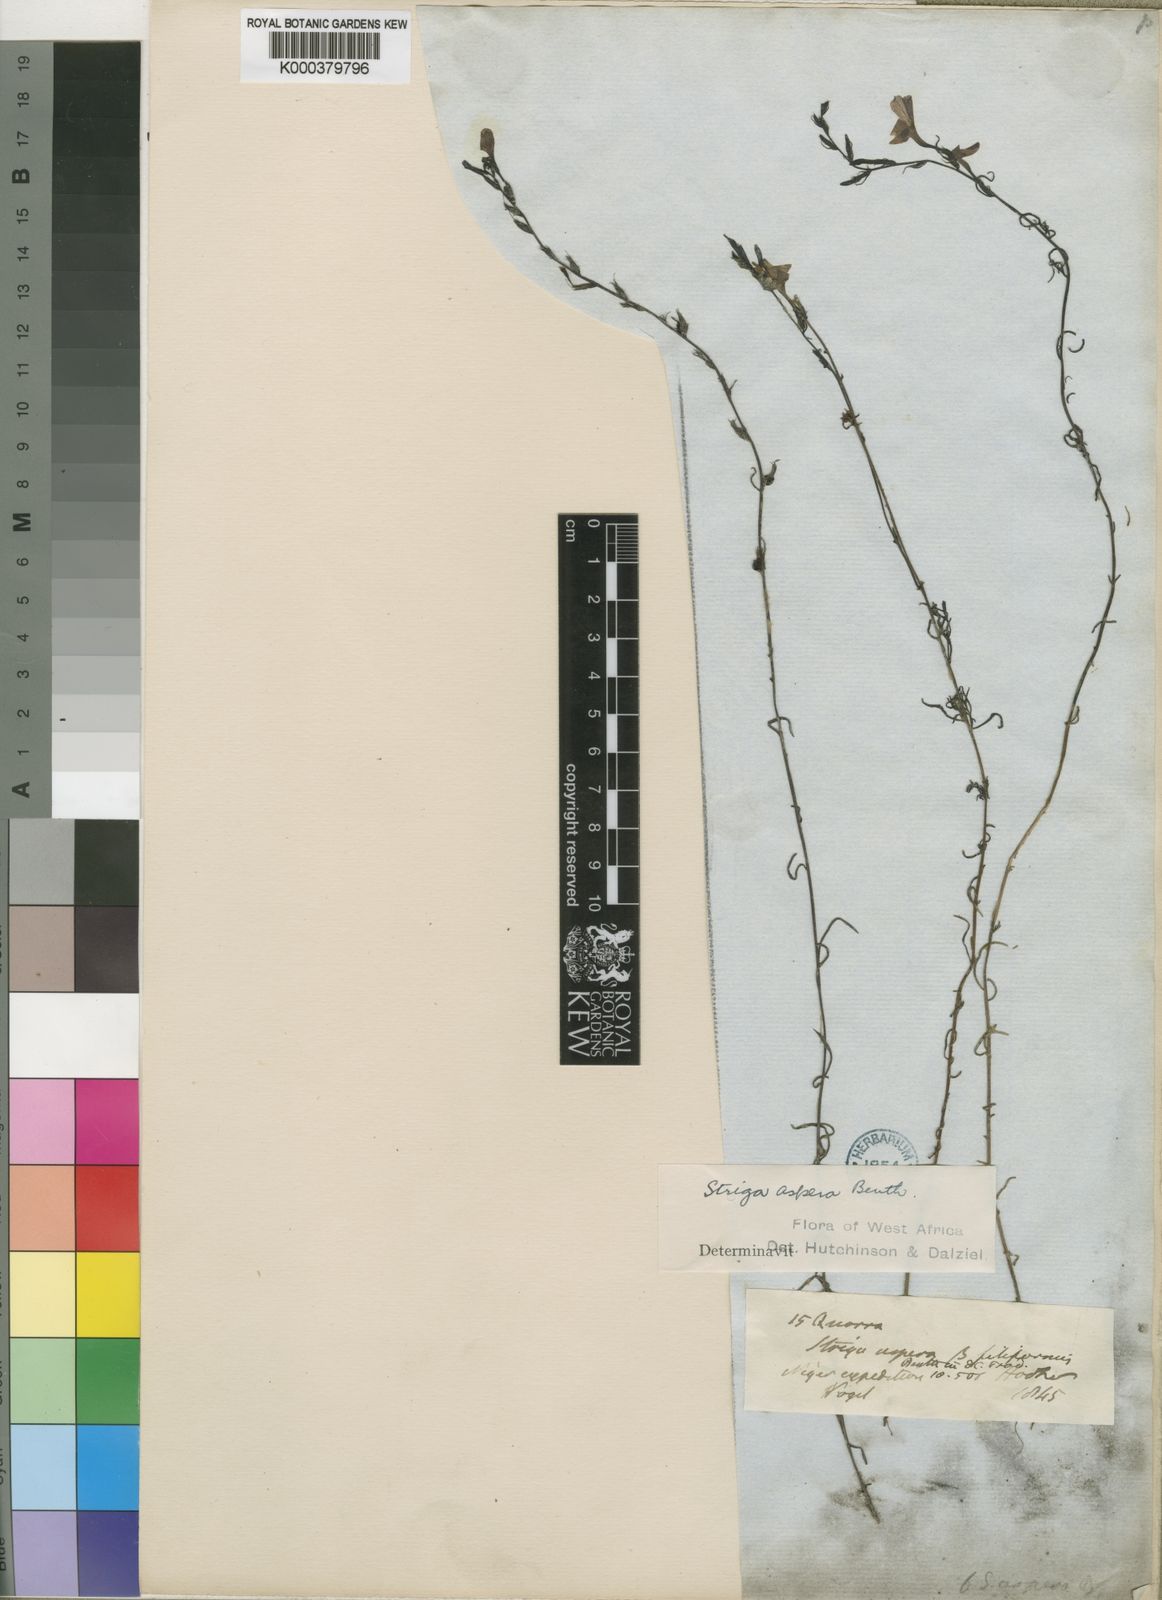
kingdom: Plantae
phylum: Tracheophyta
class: Magnoliopsida
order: Lamiales
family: Orobanchaceae
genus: Striga
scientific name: Striga aspera
